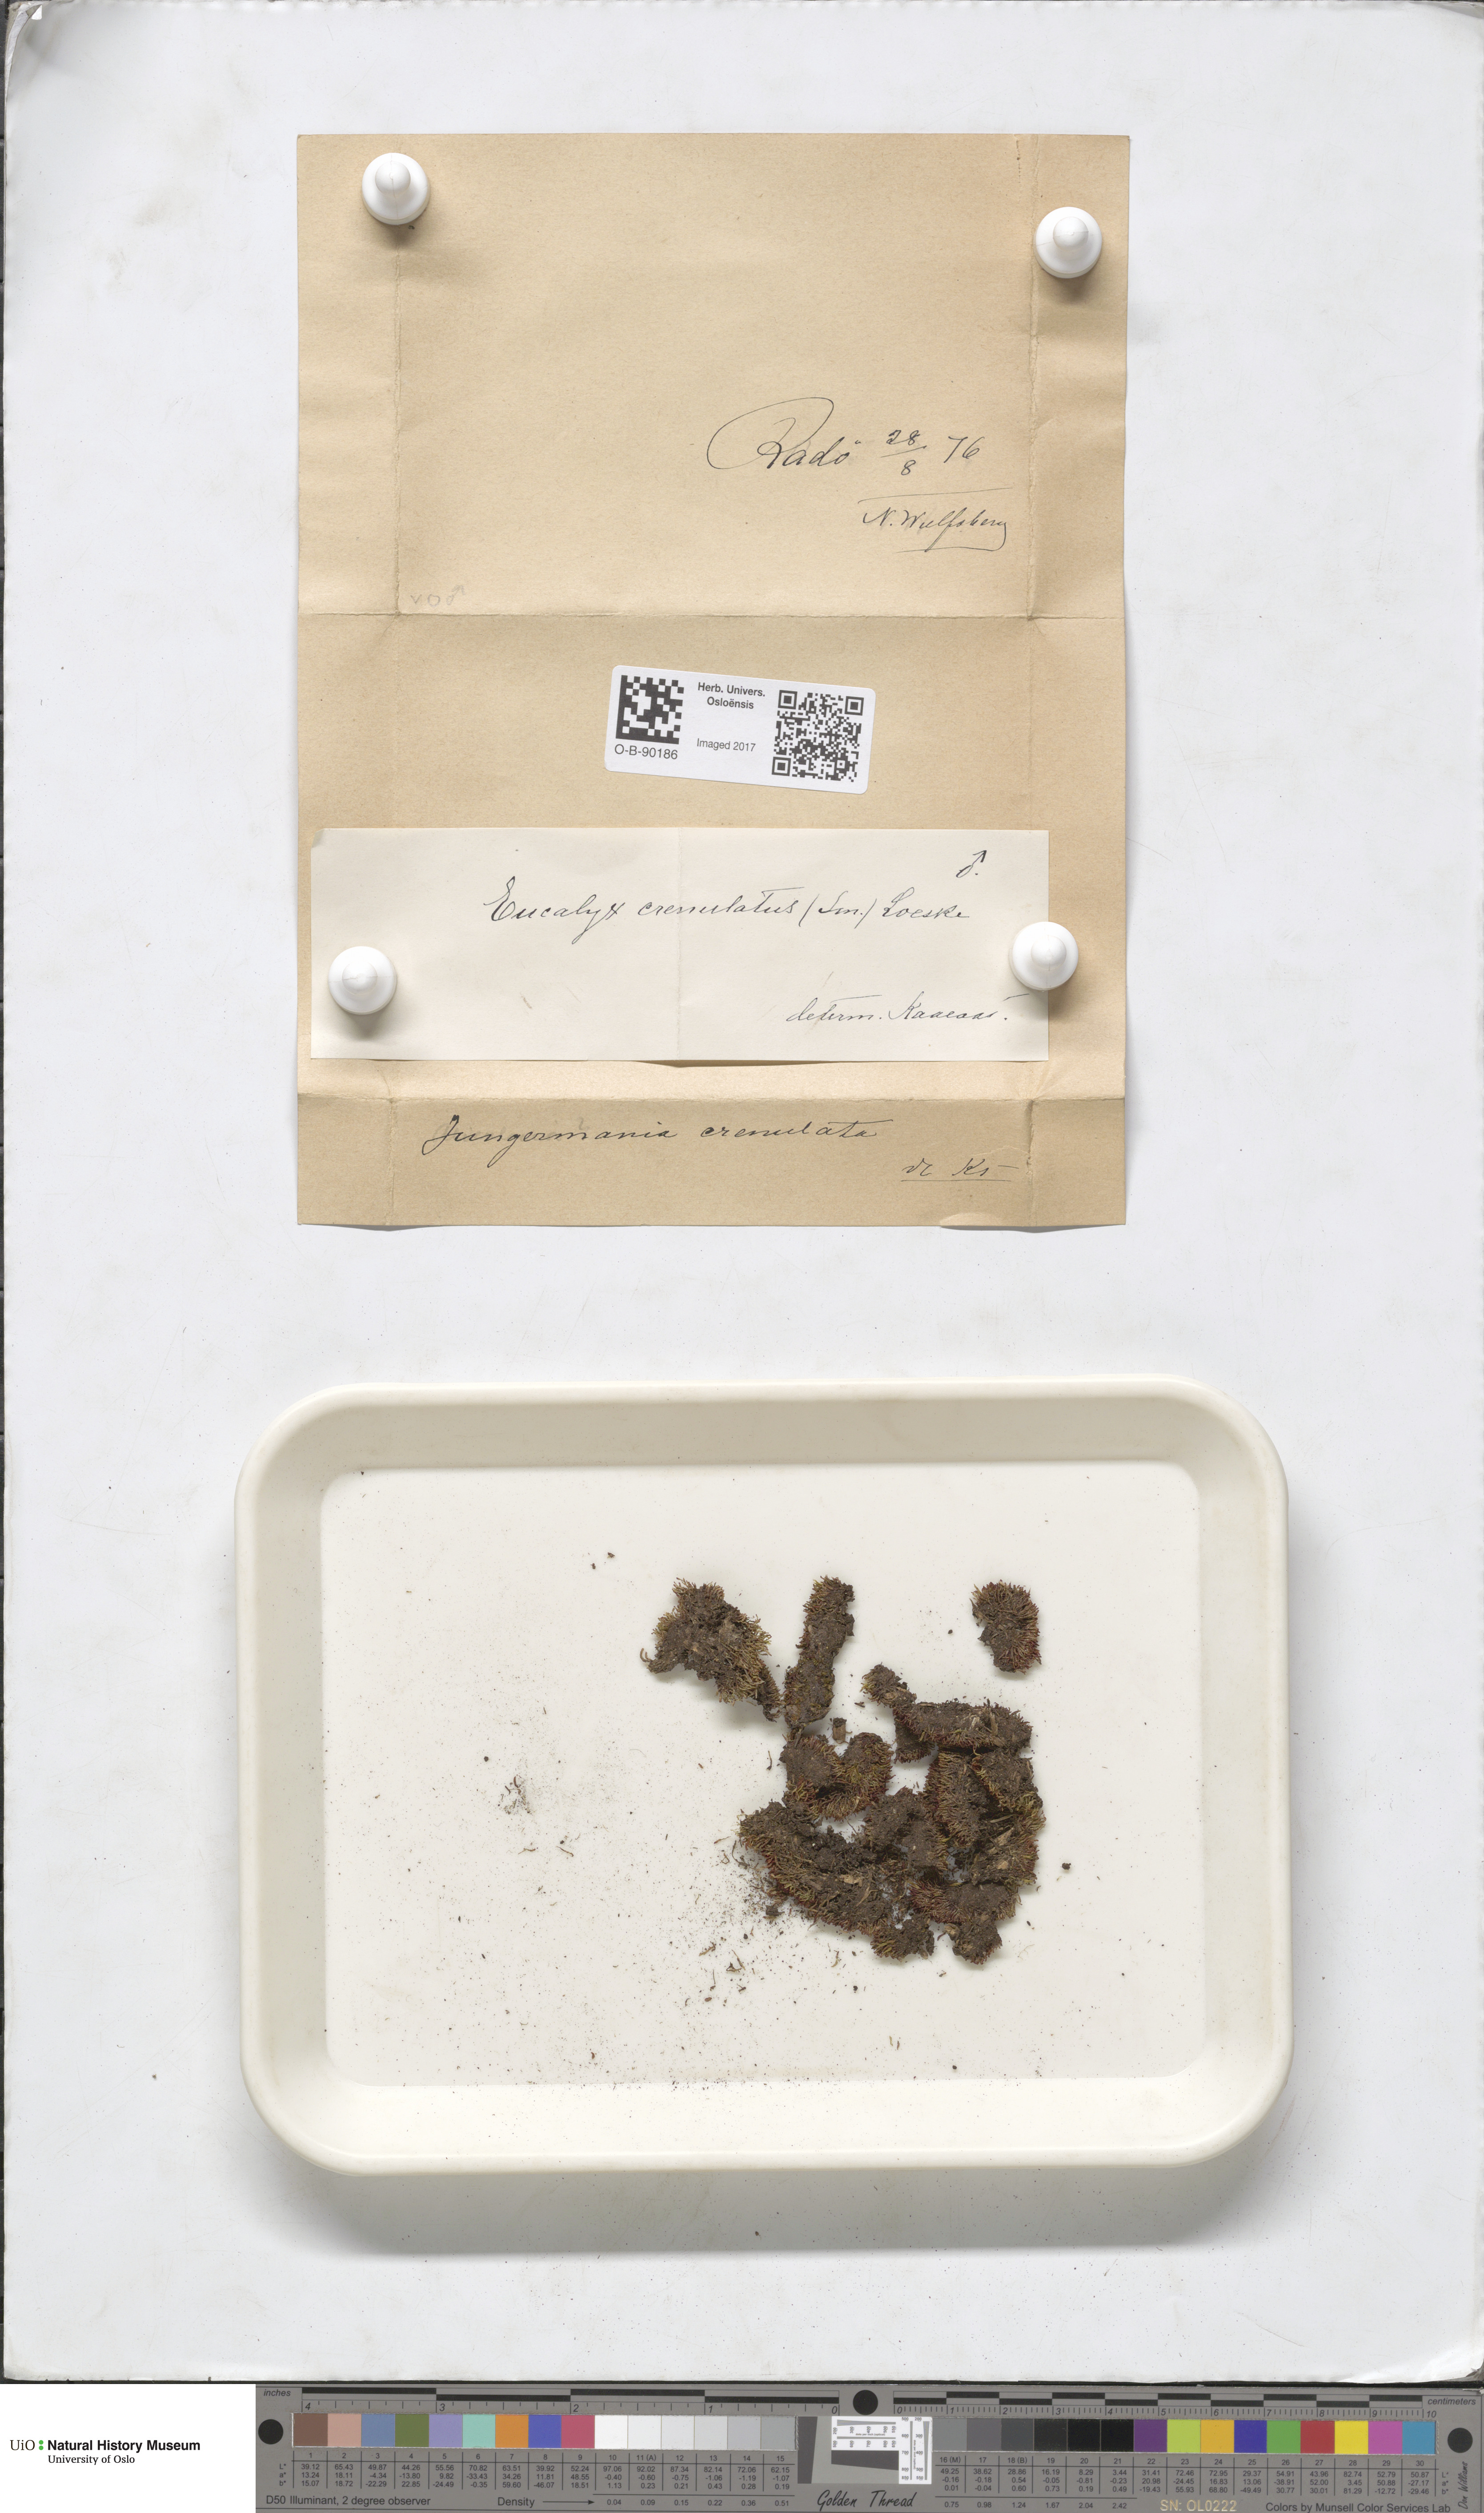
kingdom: Plantae
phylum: Marchantiophyta
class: Jungermanniopsida
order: Jungermanniales
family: Solenostomataceae
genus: Solenostoma
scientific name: Solenostoma gracillimum
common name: Crenulated flapwort
